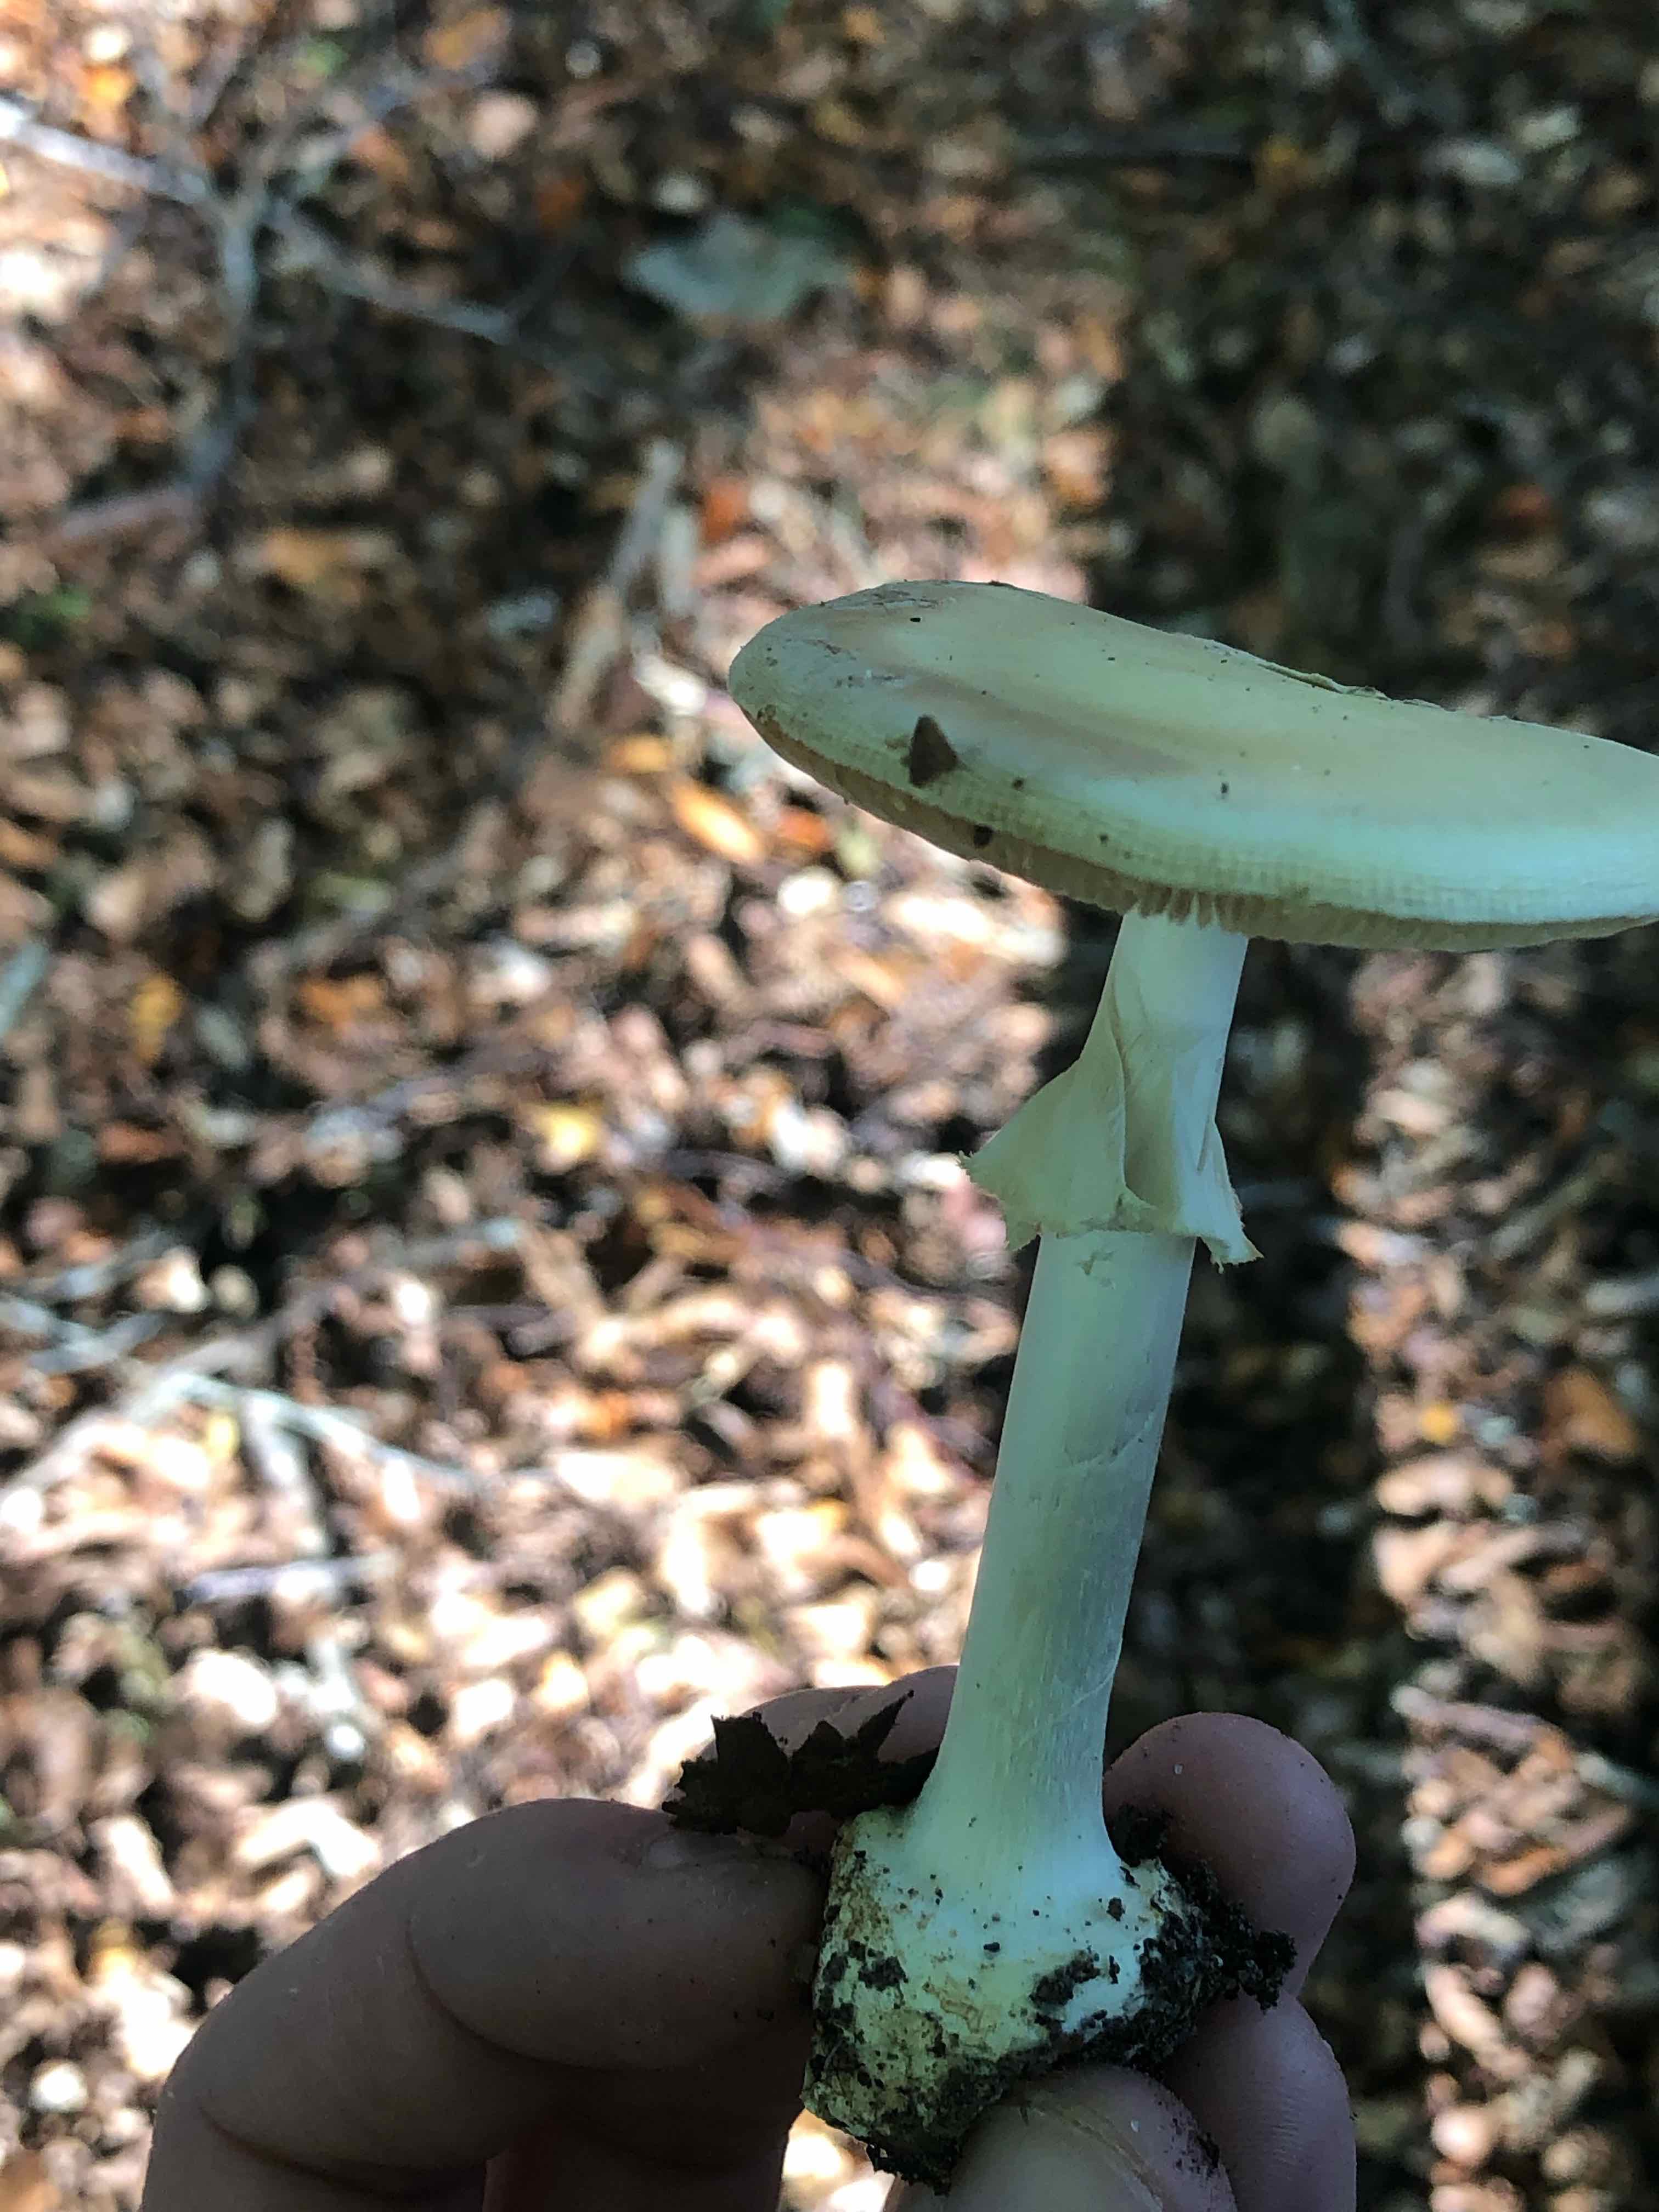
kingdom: Fungi
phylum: Basidiomycota
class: Agaricomycetes
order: Agaricales
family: Amanitaceae
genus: Amanita
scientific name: Amanita citrina
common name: kugleknoldet fluesvamp
